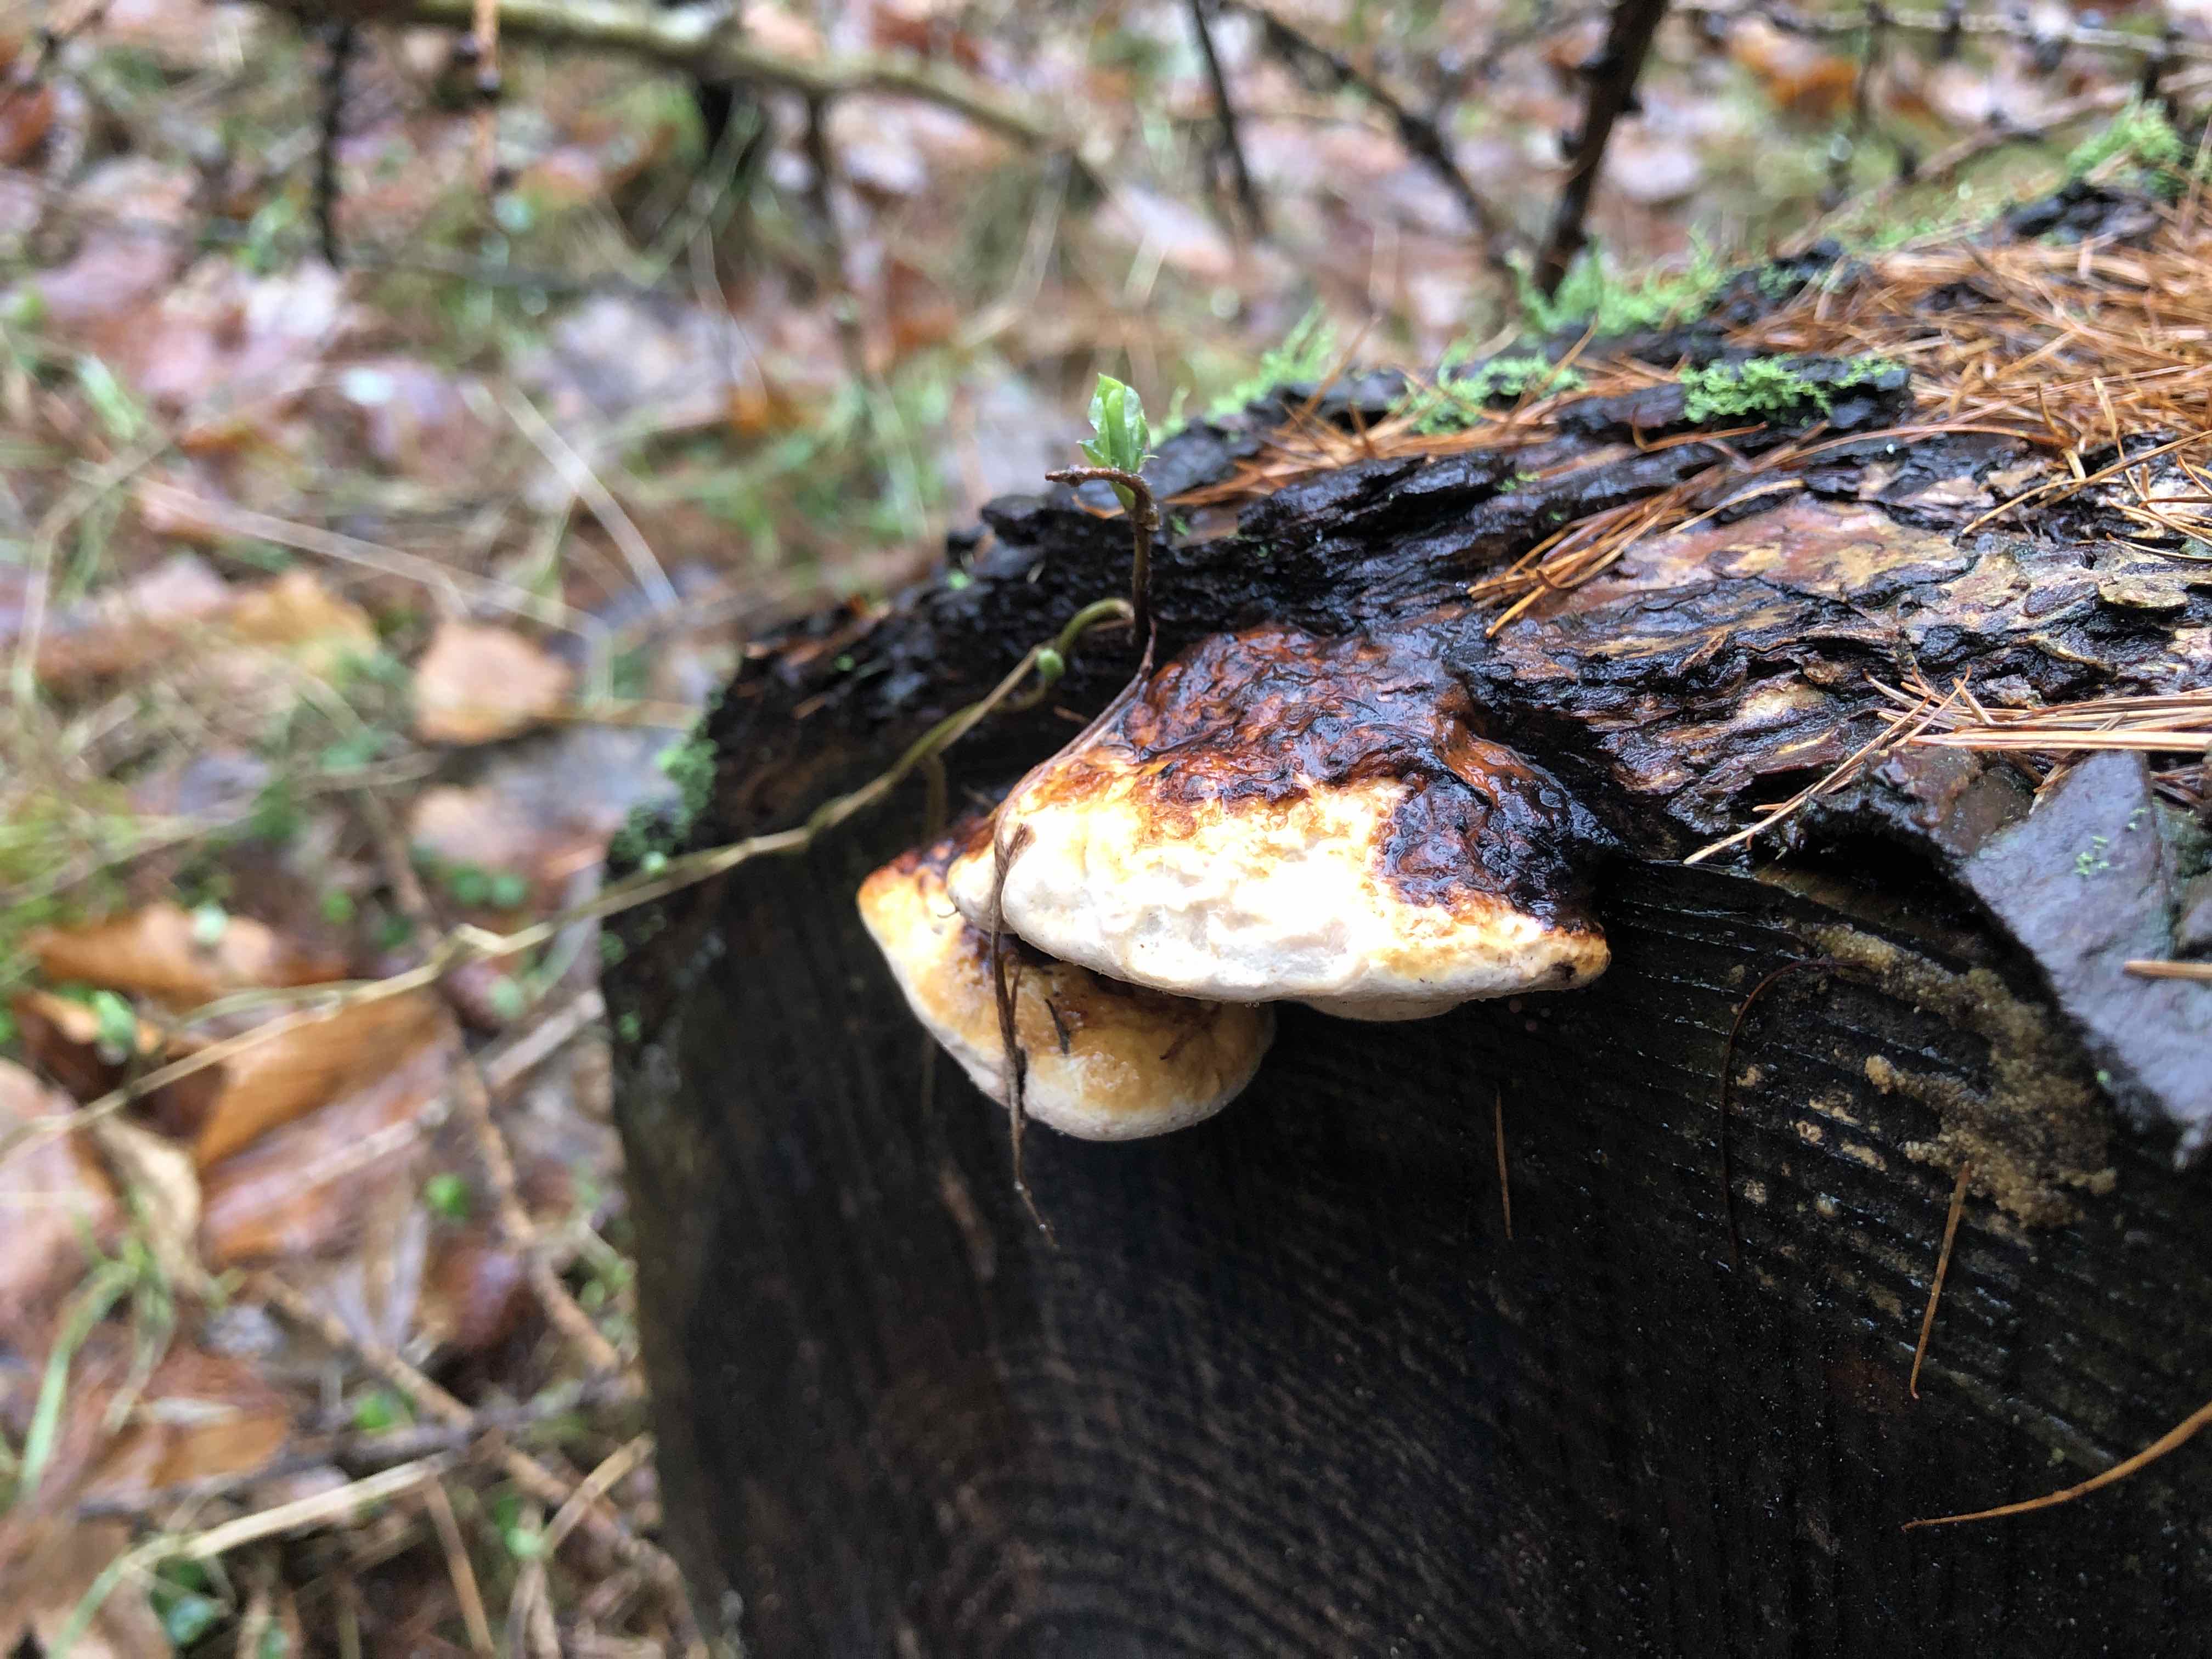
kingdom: Fungi
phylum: Basidiomycota
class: Agaricomycetes
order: Polyporales
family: Fomitopsidaceae
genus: Fomitopsis
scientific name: Fomitopsis pinicola
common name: randbæltet hovporesvamp
